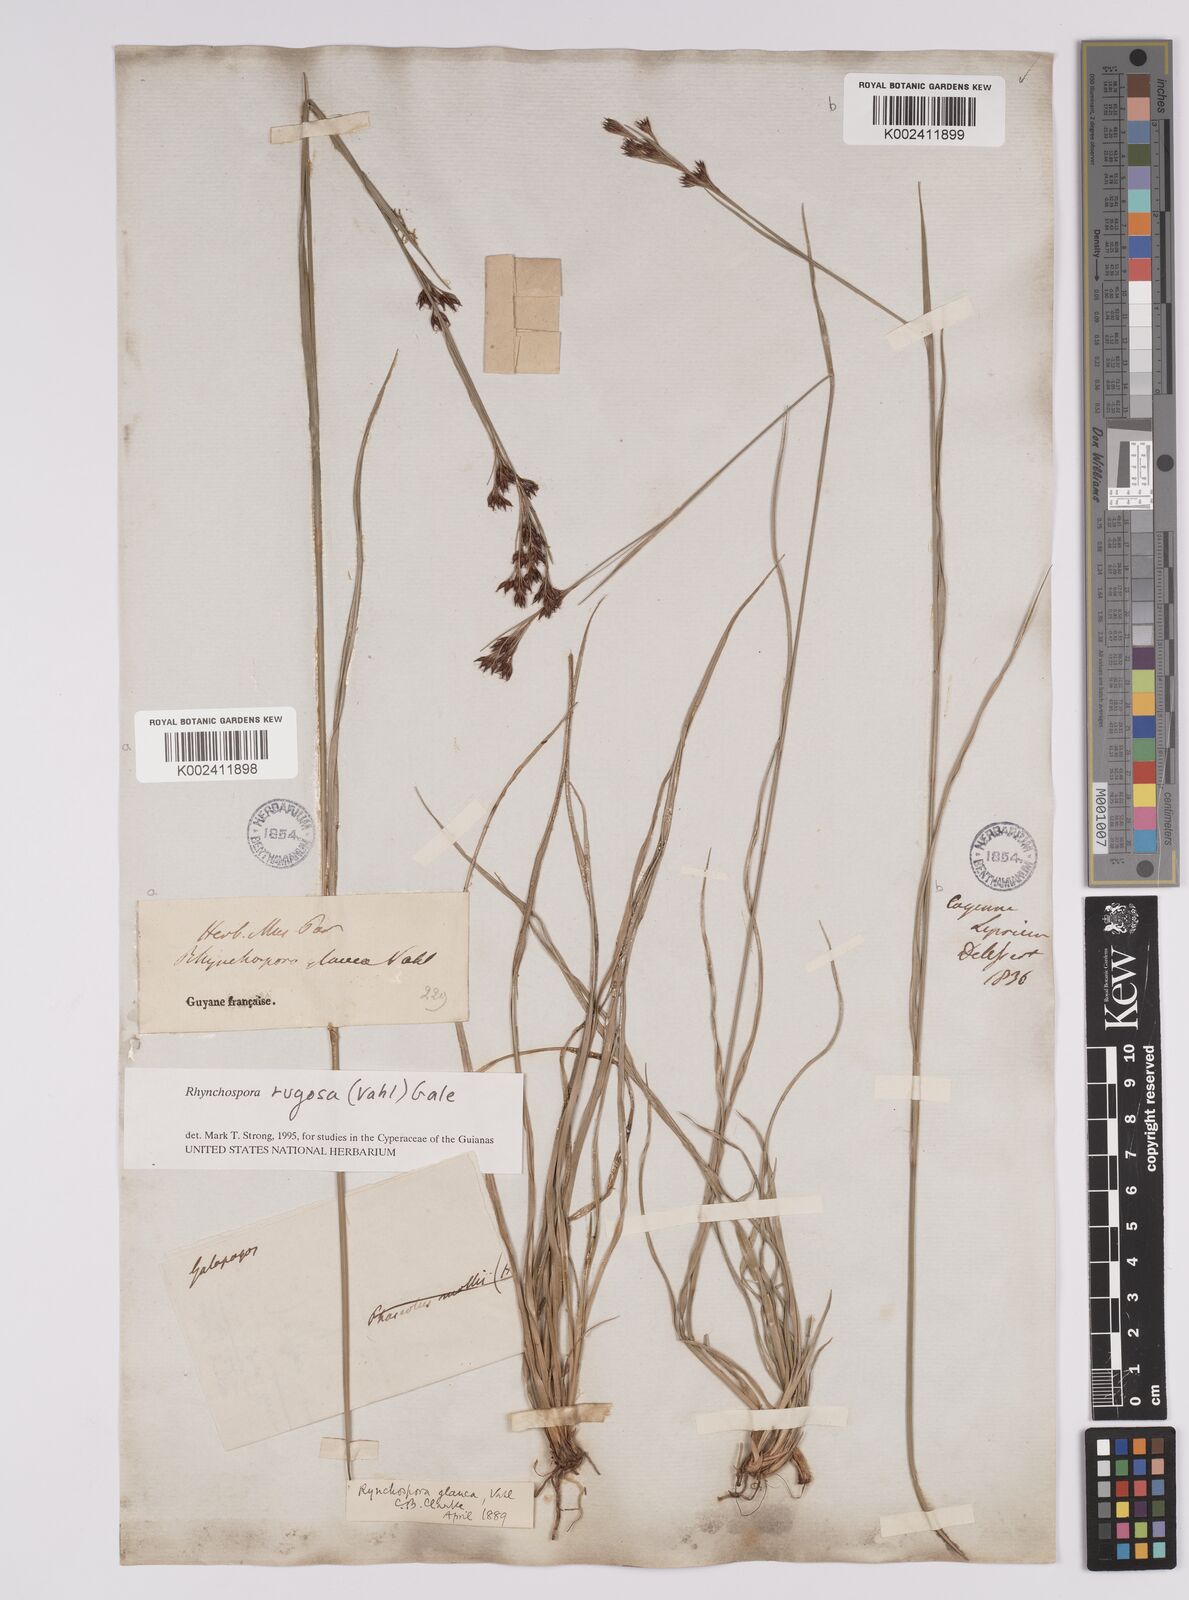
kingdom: Plantae
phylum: Tracheophyta
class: Liliopsida
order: Poales
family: Cyperaceae
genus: Rhynchospora
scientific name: Rhynchospora rugosa
